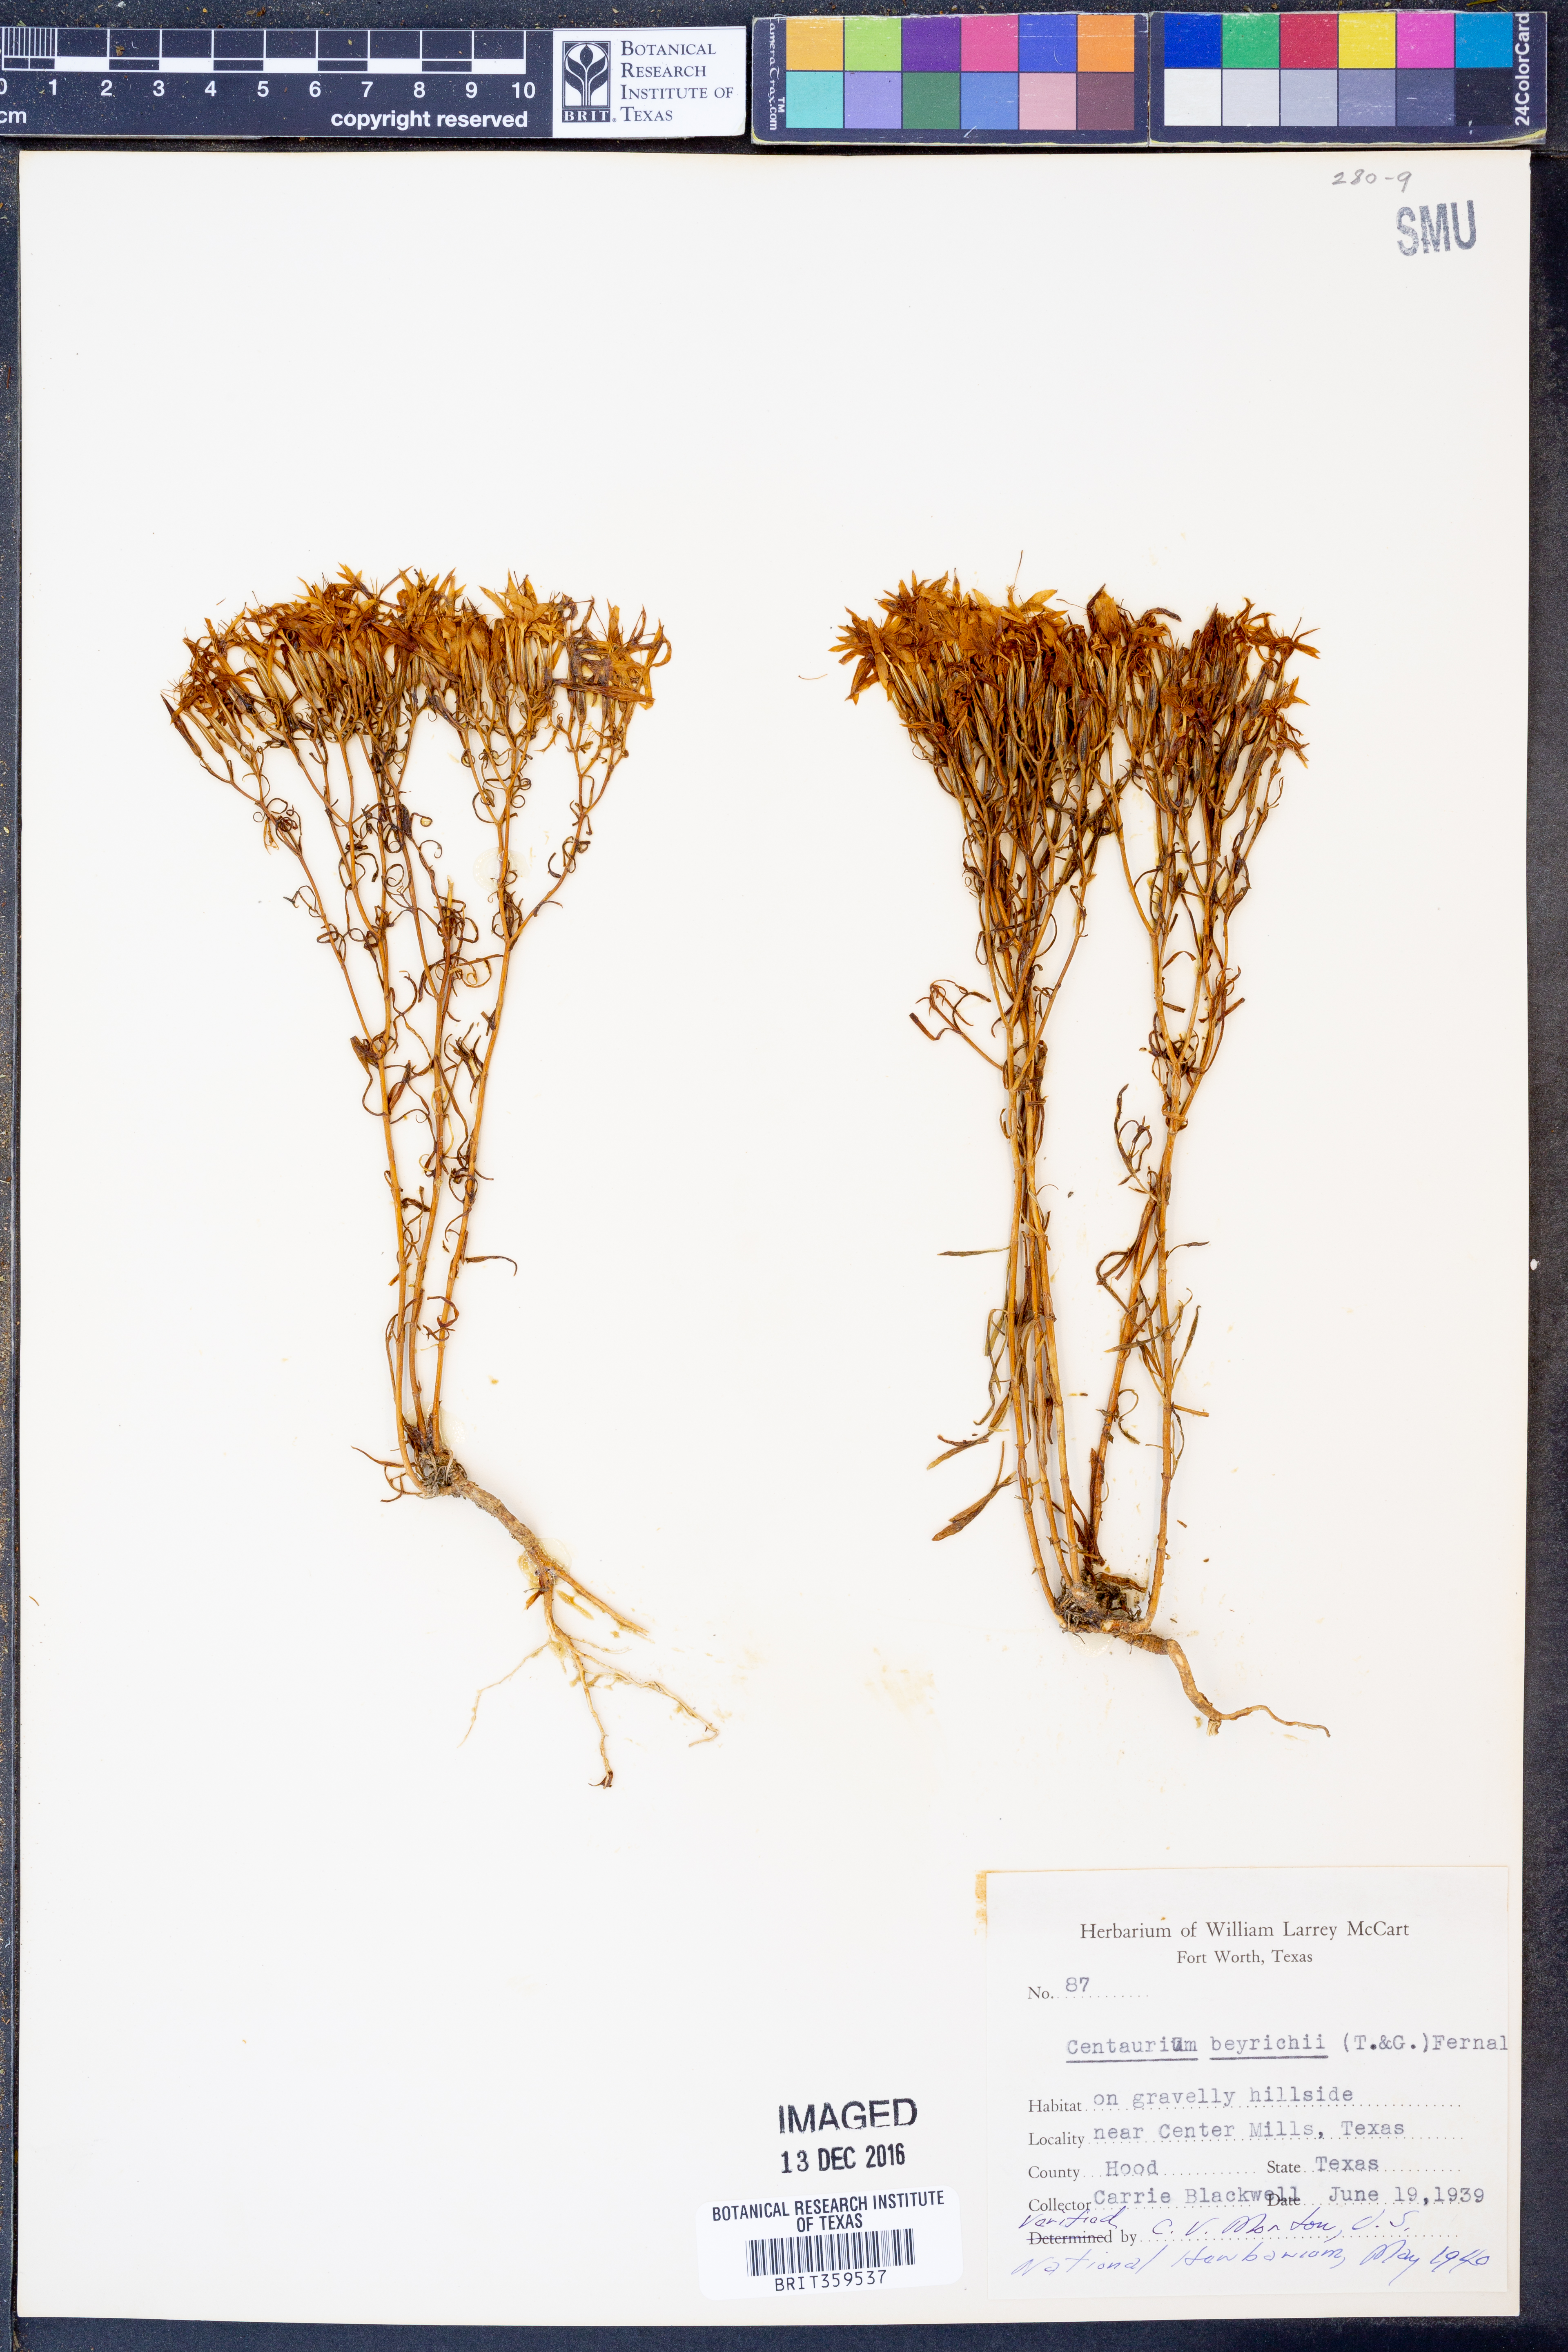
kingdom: Plantae
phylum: Tracheophyta
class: Magnoliopsida
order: Gentianales
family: Gentianaceae
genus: Zeltnera
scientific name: Zeltnera beyrichii
